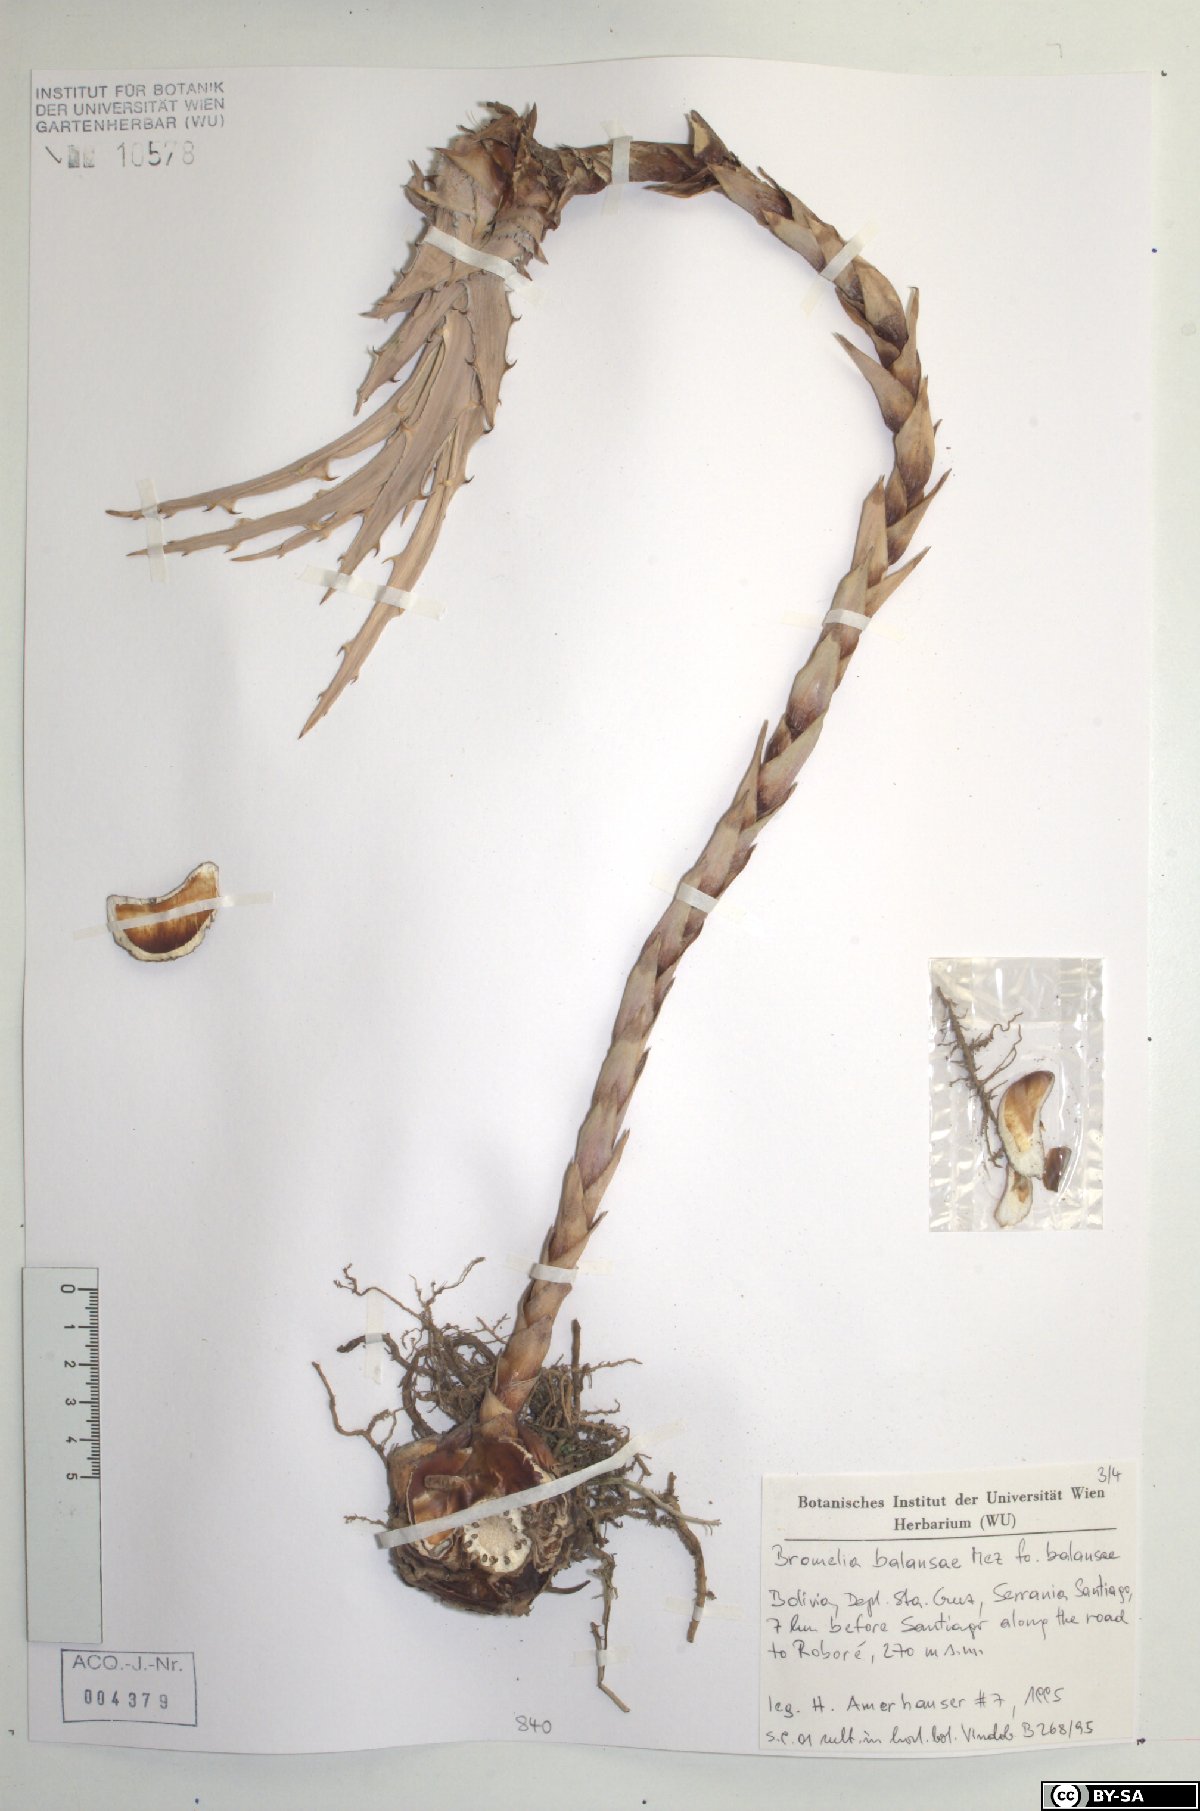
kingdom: Plantae
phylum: Tracheophyta
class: Liliopsida
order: Poales
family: Bromeliaceae
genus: Bromelia
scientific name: Bromelia balansae
